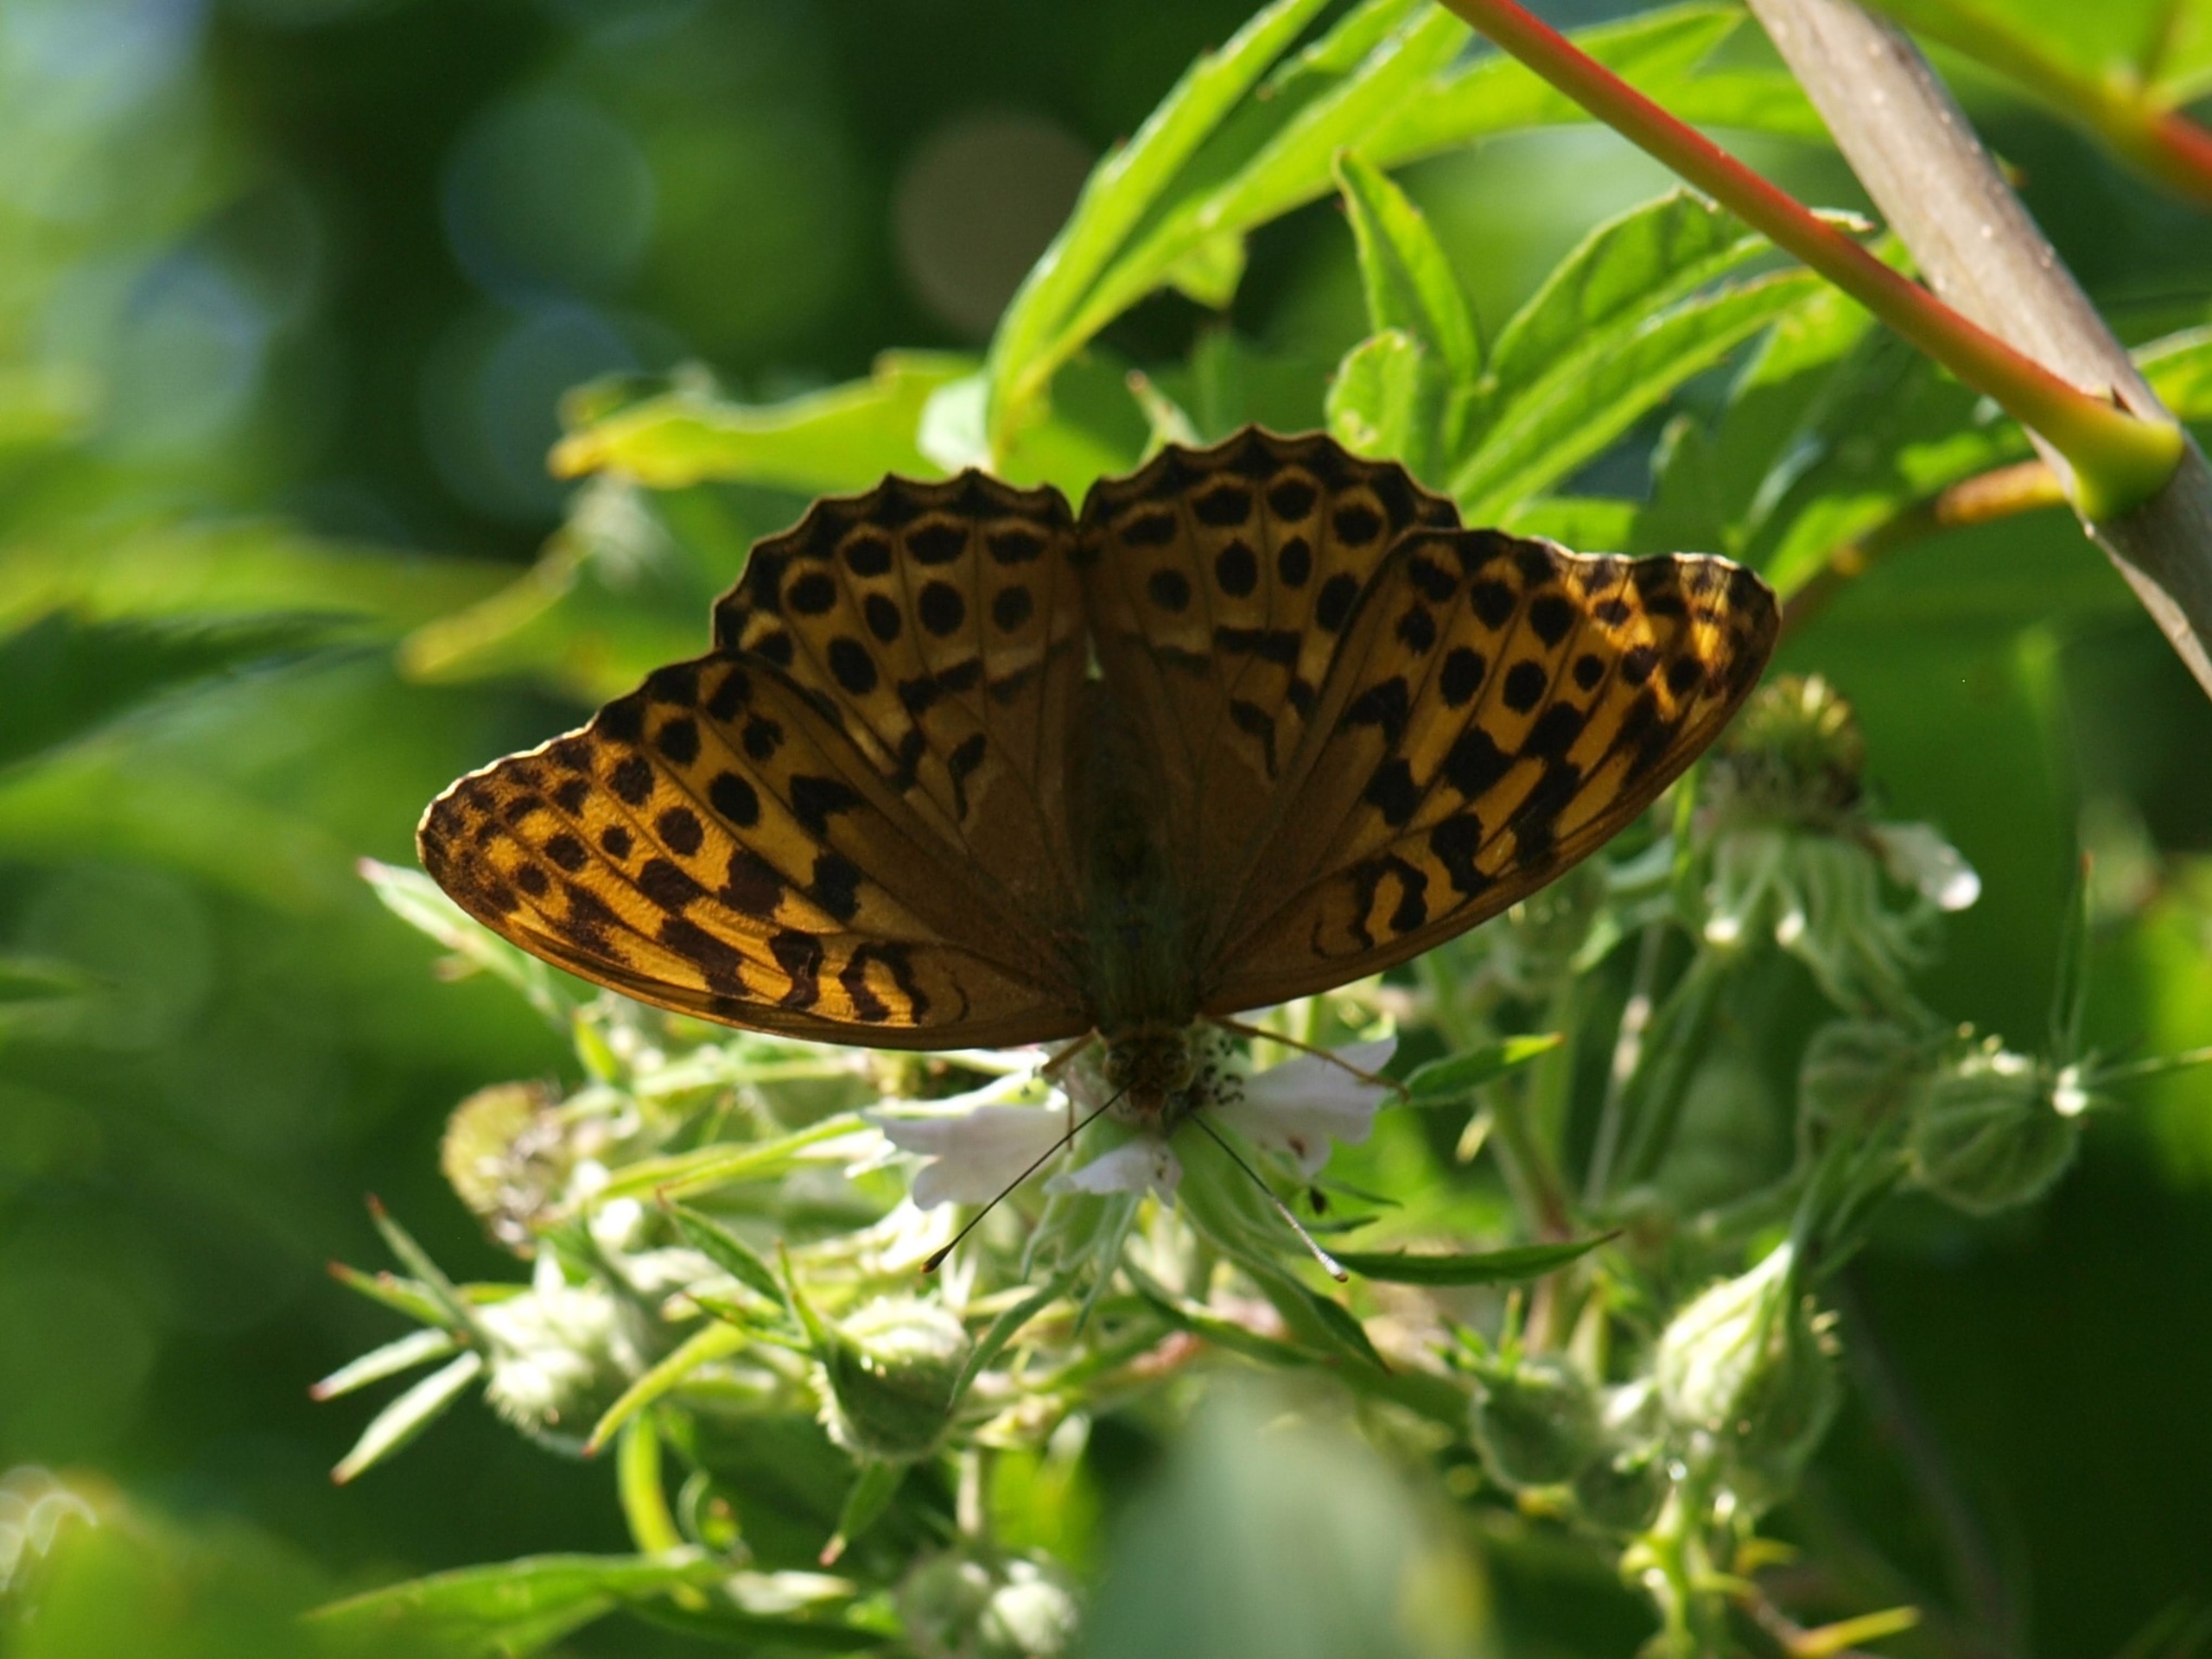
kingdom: Animalia
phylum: Arthropoda
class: Insecta
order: Lepidoptera
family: Nymphalidae
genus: Argynnis
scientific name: Argynnis paphia
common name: Kejserkåbe
